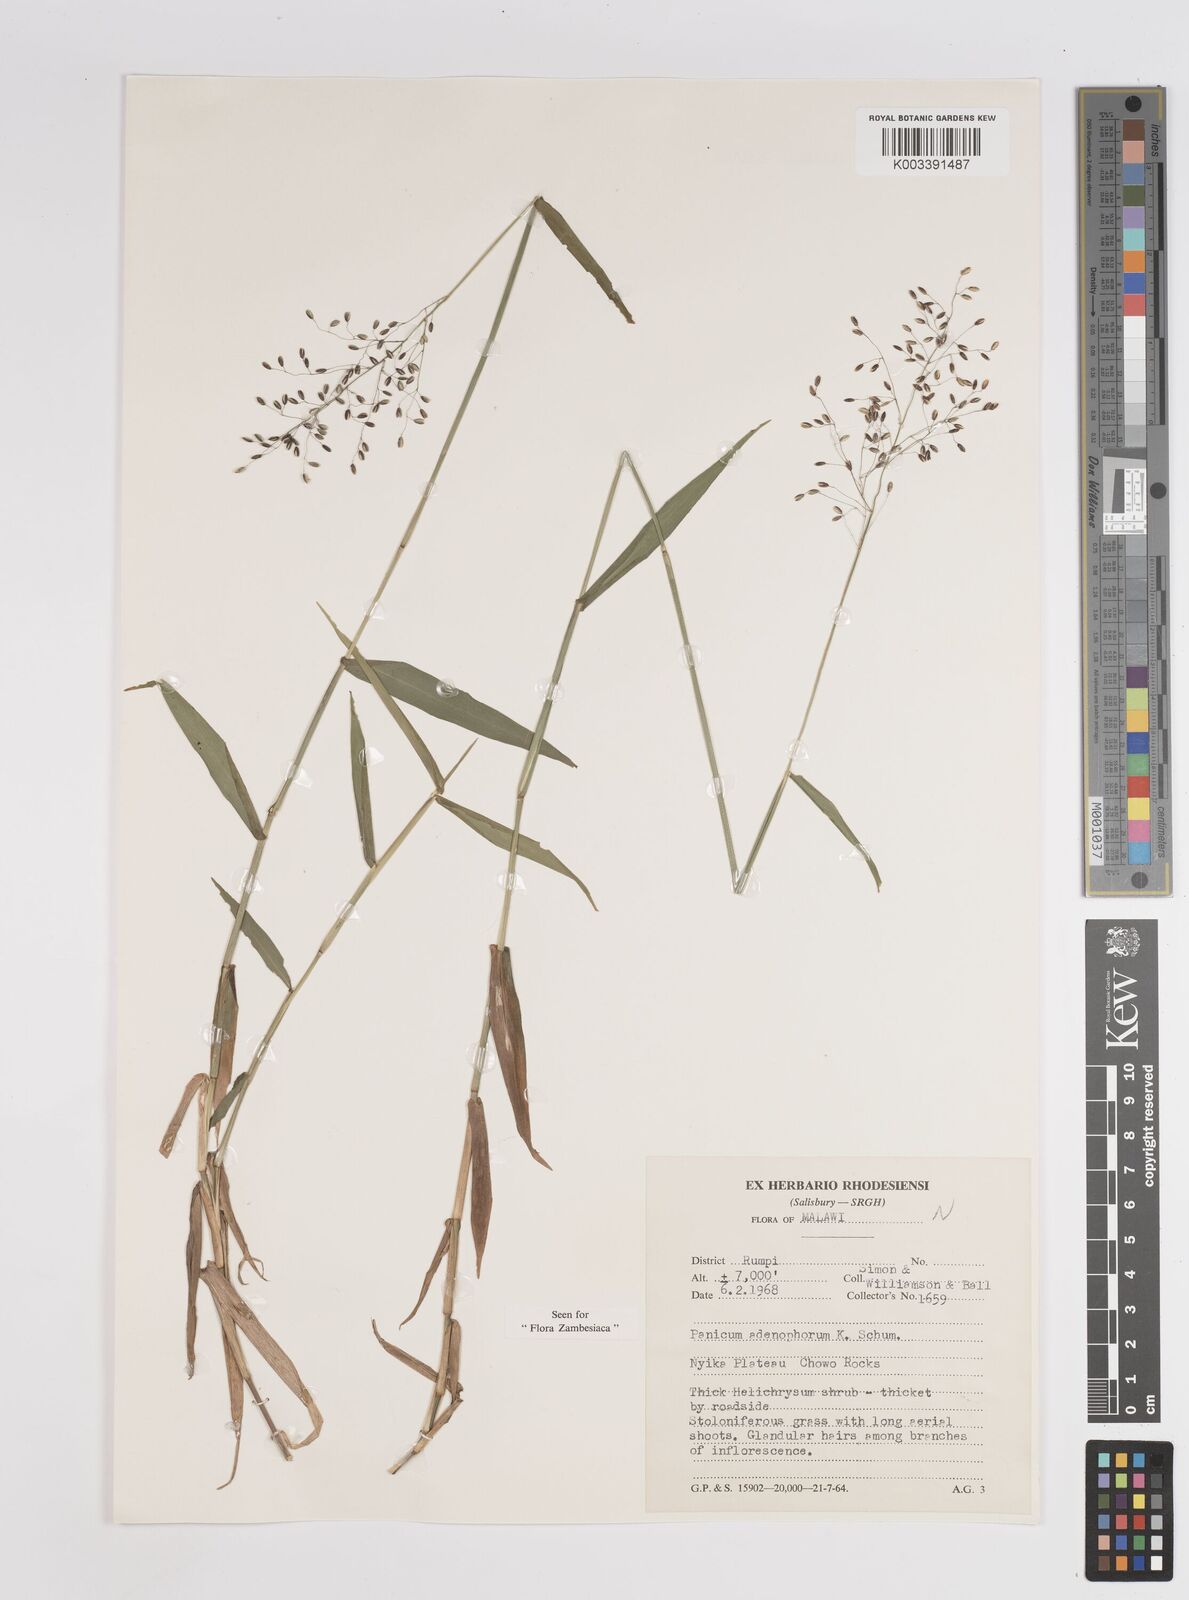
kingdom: Plantae
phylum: Tracheophyta
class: Liliopsida
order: Poales
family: Poaceae
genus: Adenochloa
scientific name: Adenochloa adenophora
